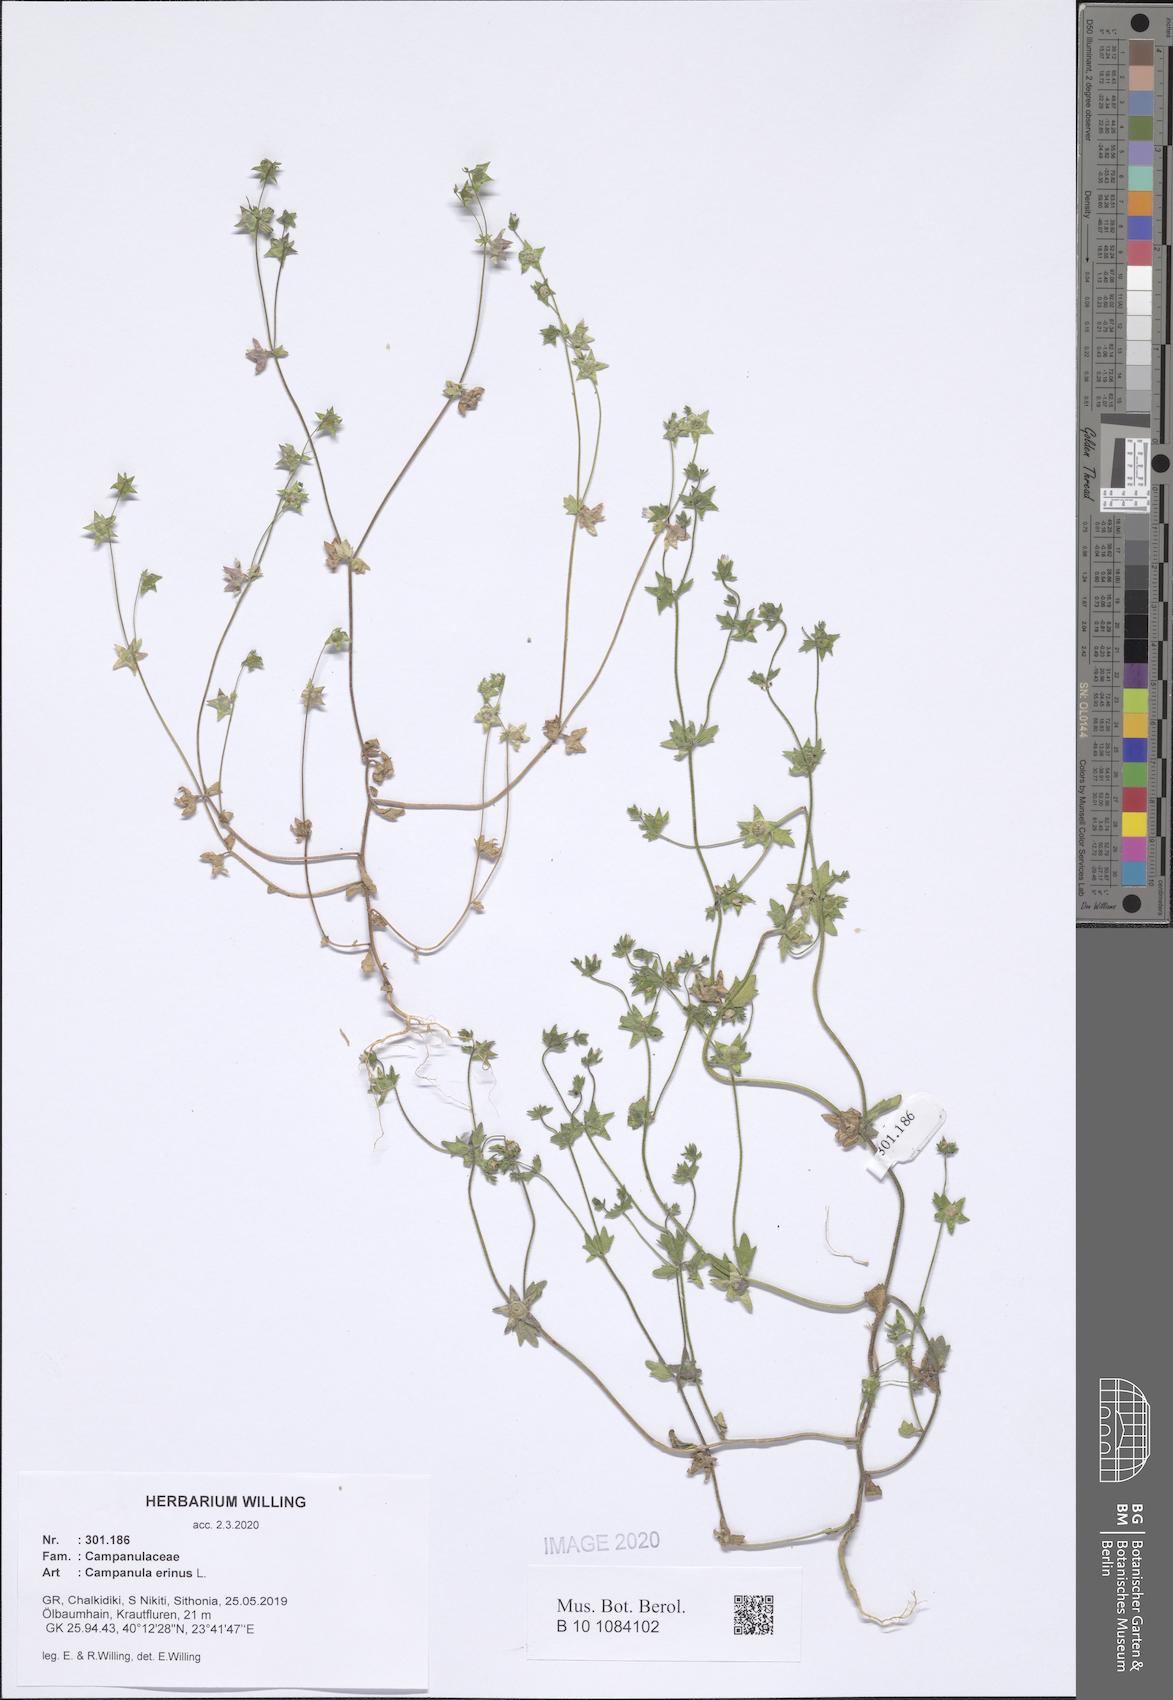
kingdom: Plantae
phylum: Tracheophyta
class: Magnoliopsida
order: Asterales
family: Campanulaceae
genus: Campanula
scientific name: Campanula erinus
